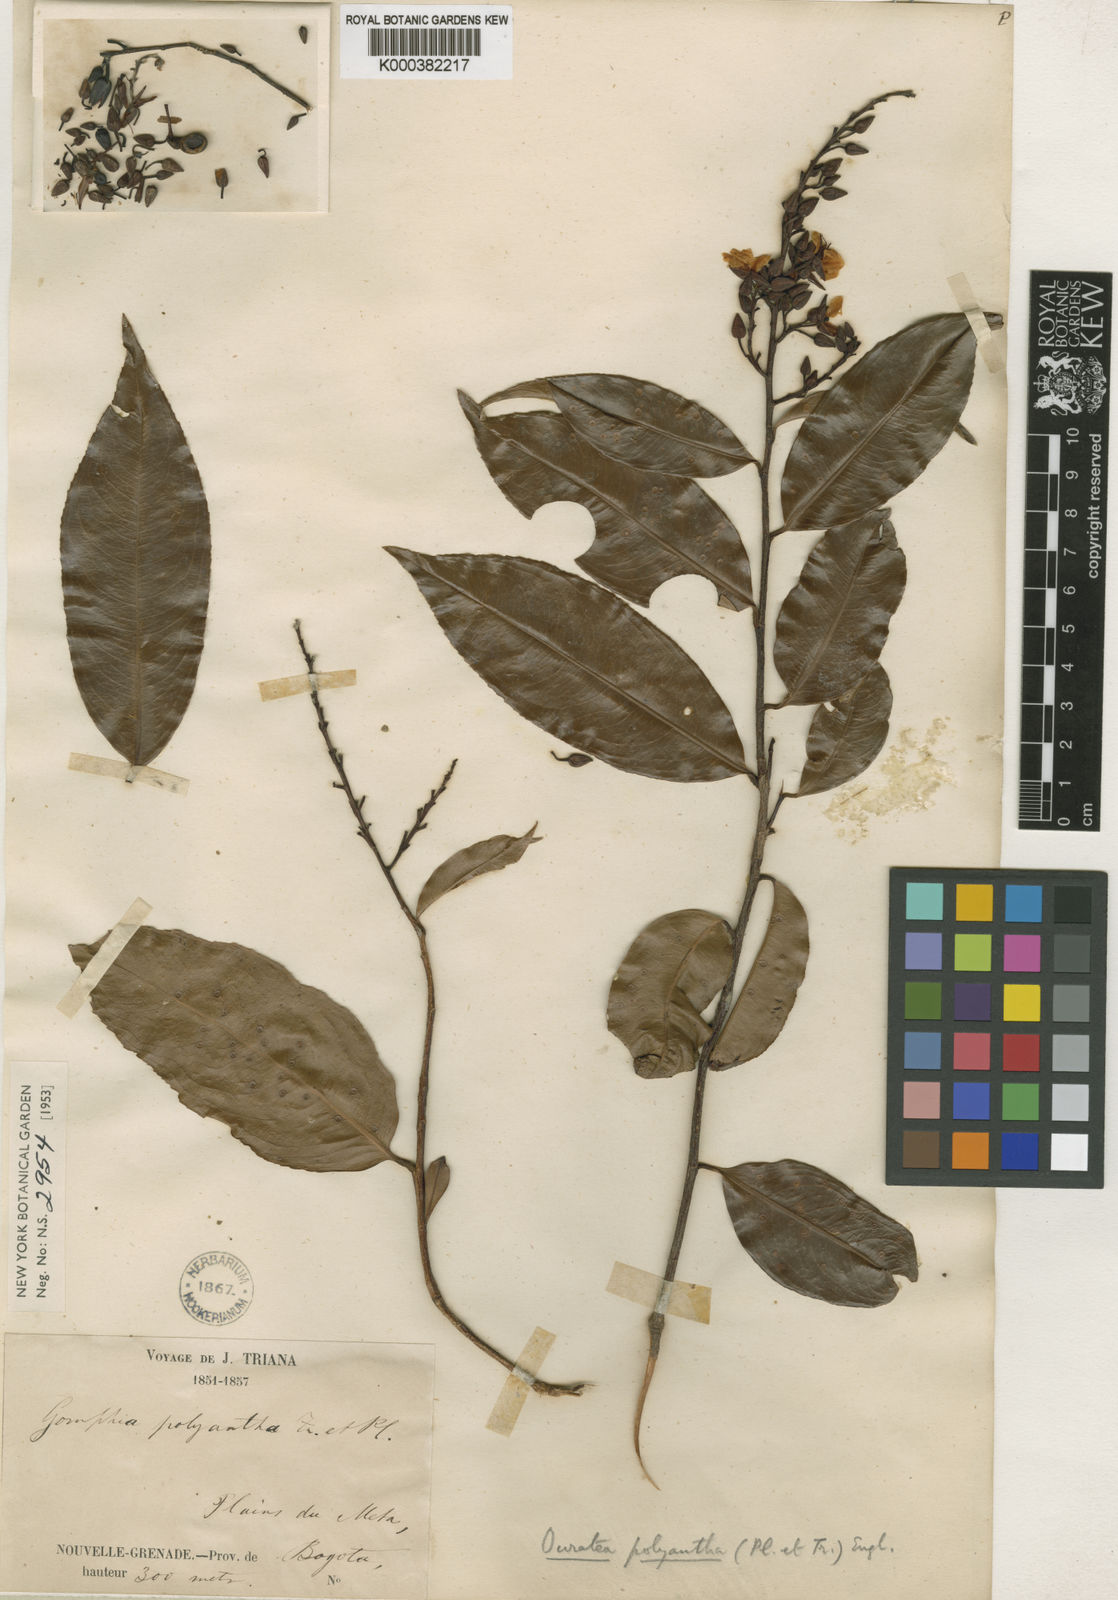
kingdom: Plantae
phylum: Tracheophyta
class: Magnoliopsida
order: Malpighiales
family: Ochnaceae
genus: Ouratea
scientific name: Ouratea polyantha
